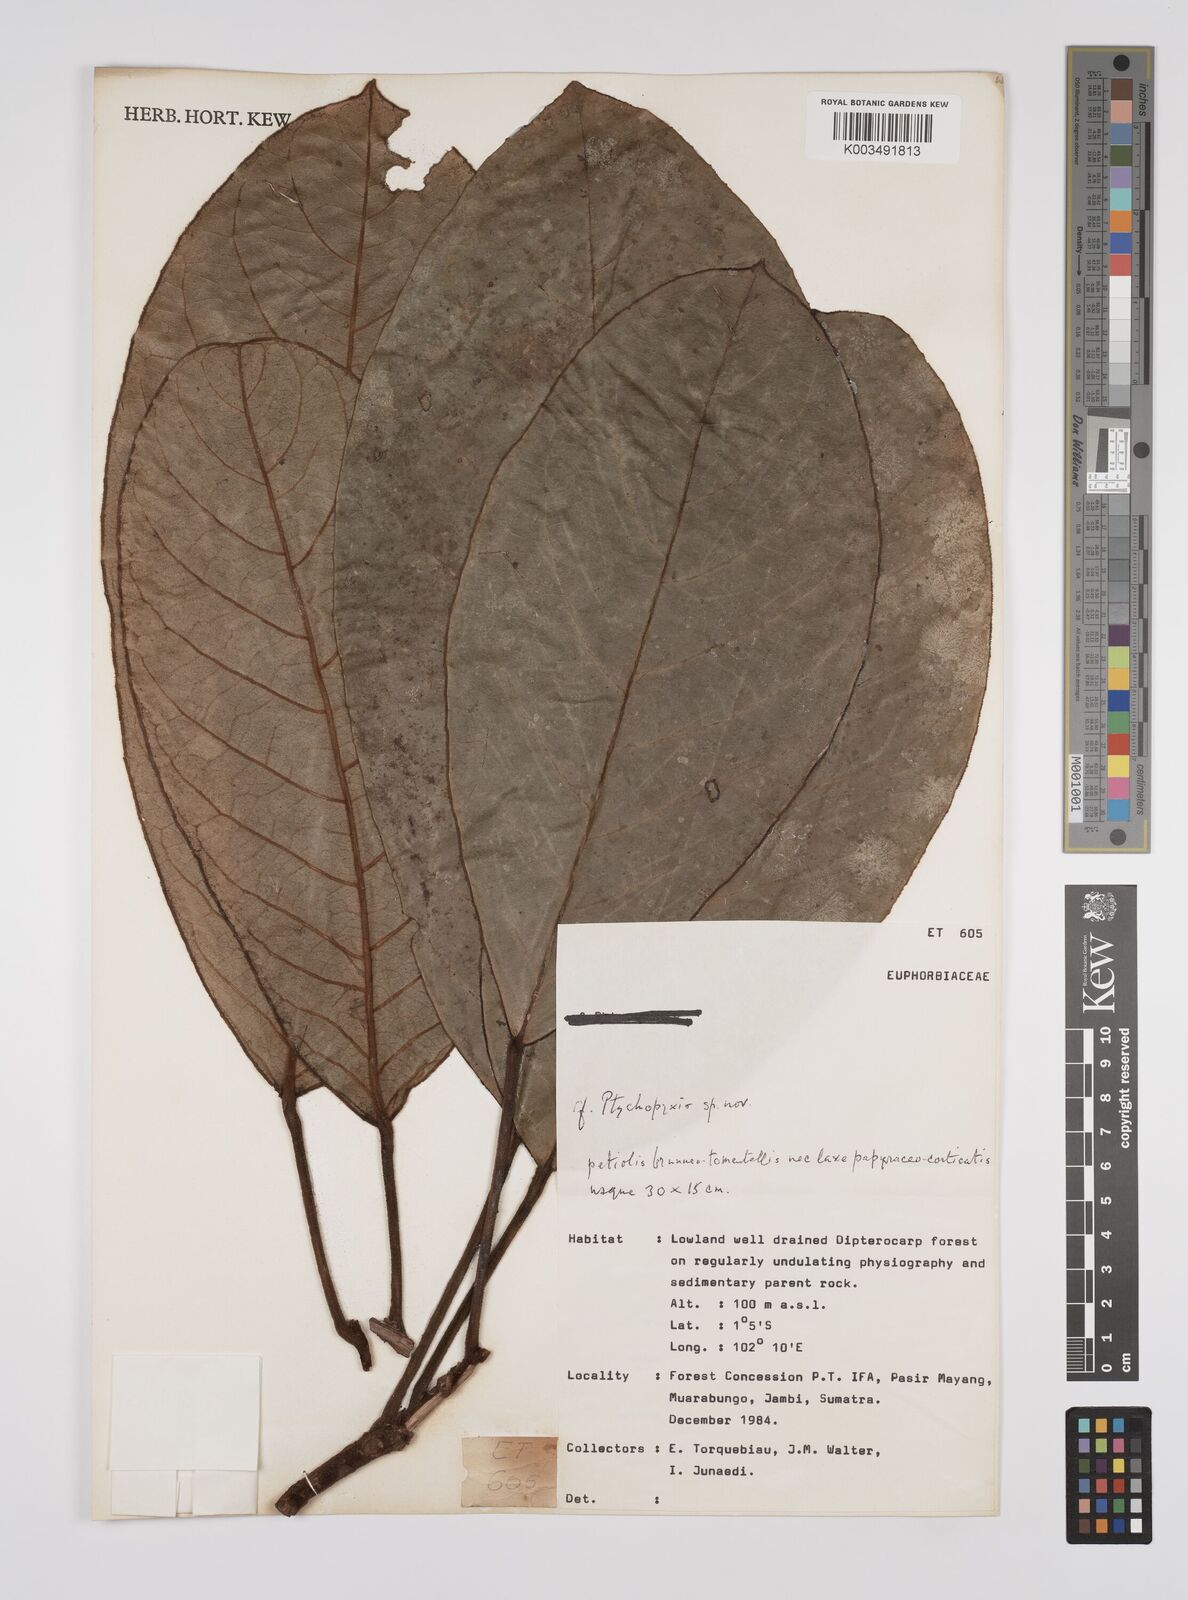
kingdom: Plantae
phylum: Tracheophyta
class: Magnoliopsida
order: Malpighiales
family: Euphorbiaceae
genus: Ptychopyxis
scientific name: Ptychopyxis
